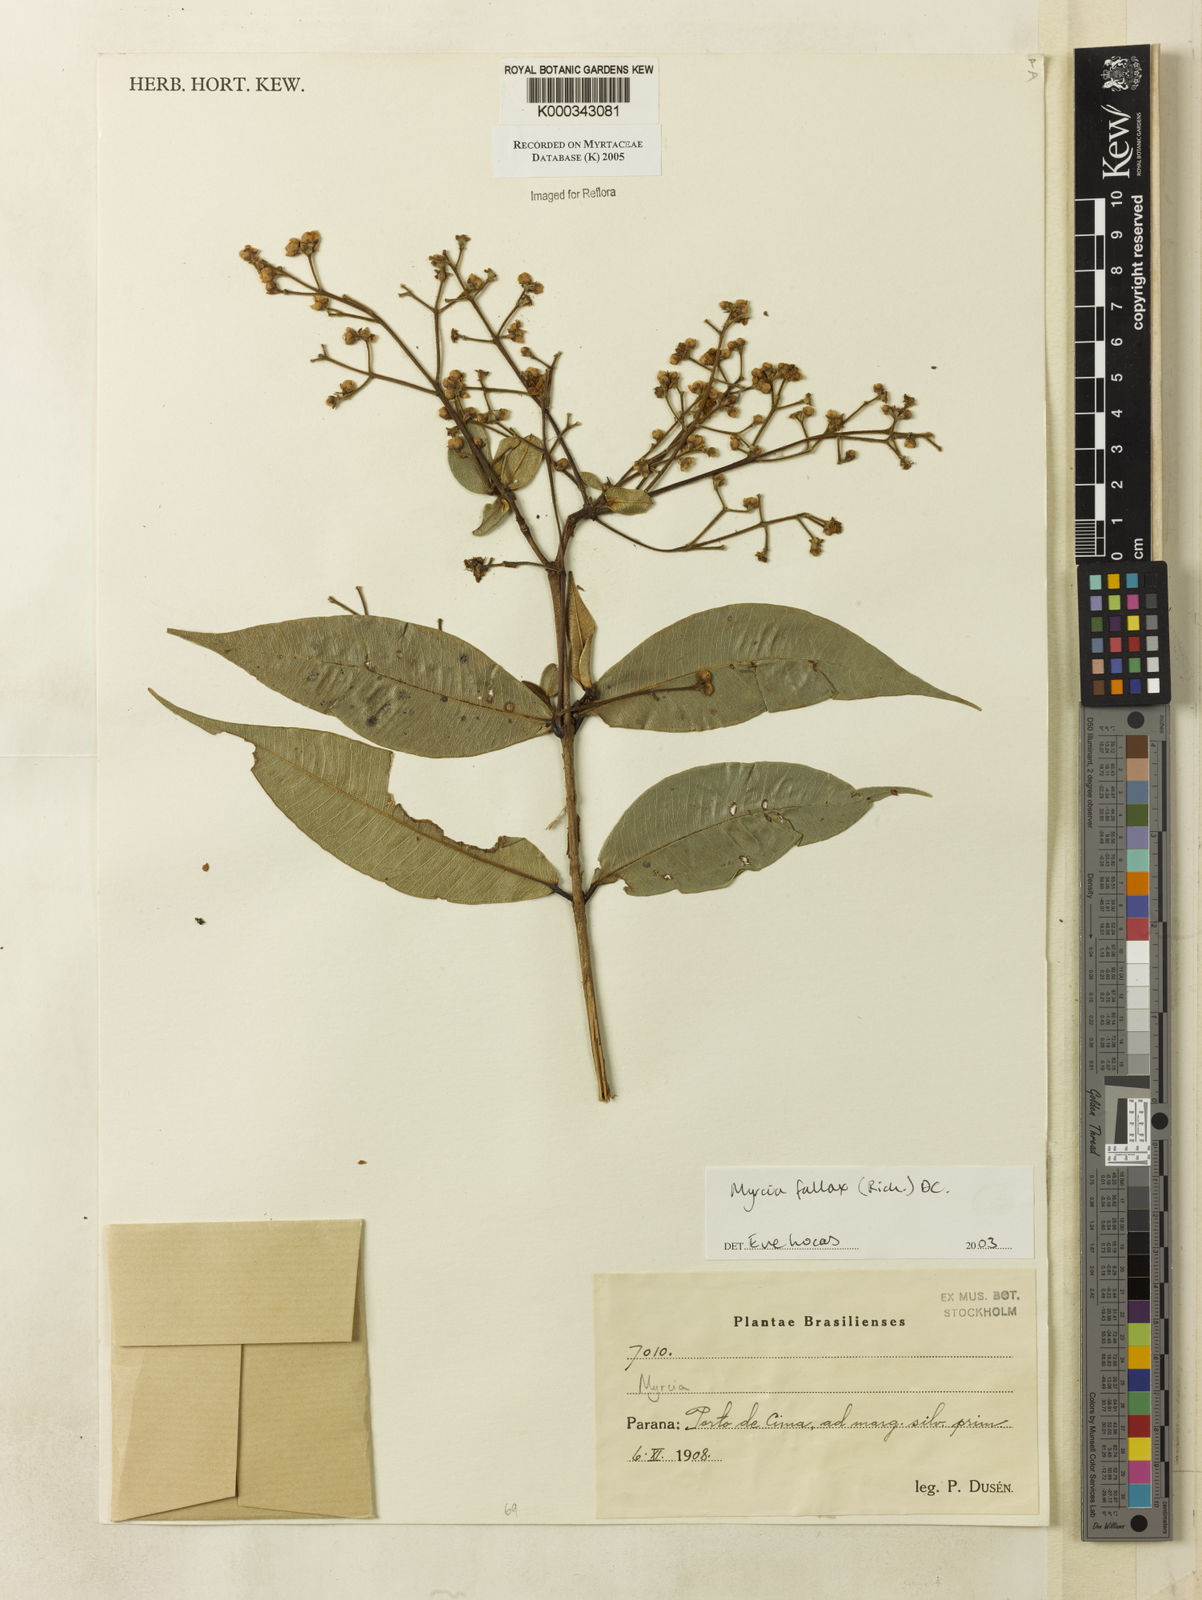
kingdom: Plantae
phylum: Tracheophyta
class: Magnoliopsida
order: Myrtales
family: Myrtaceae
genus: Myrcia
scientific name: Myrcia splendens
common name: Surinam cherry
